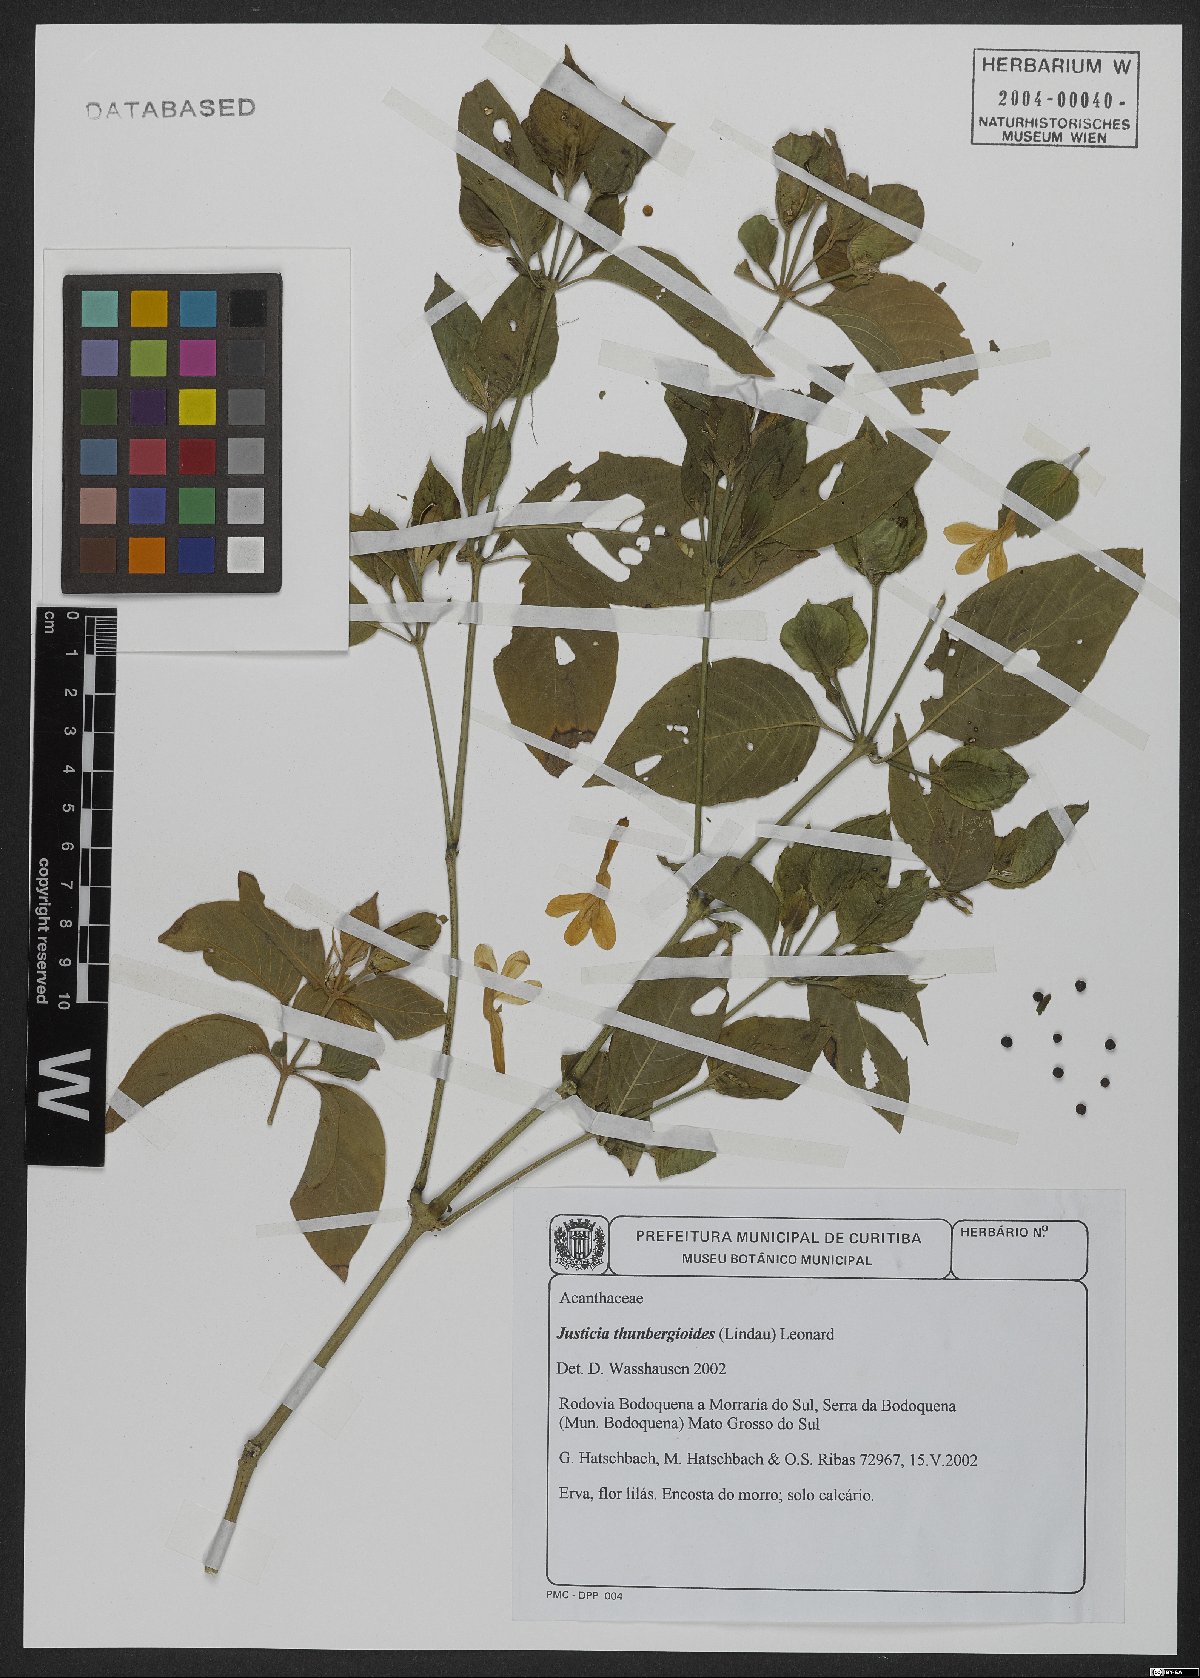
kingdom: Plantae
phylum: Tracheophyta
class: Magnoliopsida
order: Lamiales
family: Acanthaceae
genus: Justicia
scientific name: Justicia thunbergioides
